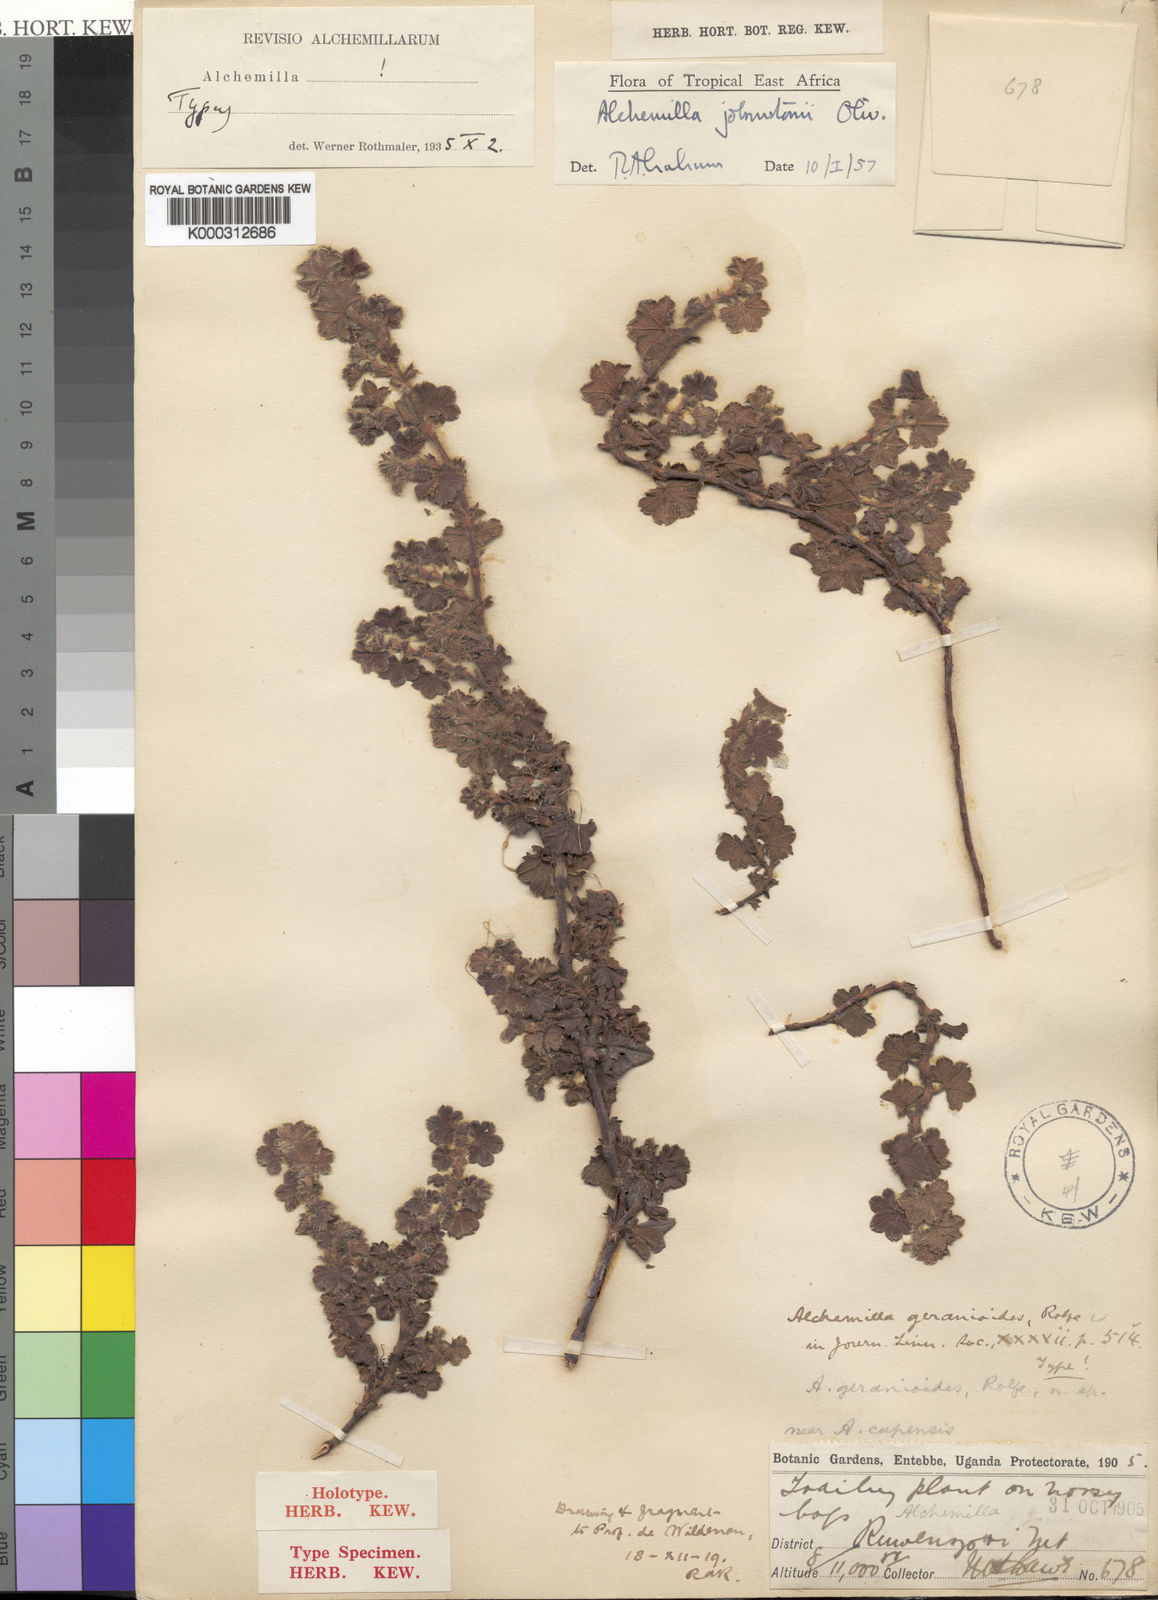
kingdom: Plantae
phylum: Tracheophyta
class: Magnoliopsida
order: Rosales
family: Rosaceae
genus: Alchemilla
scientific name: Alchemilla johnstonii
